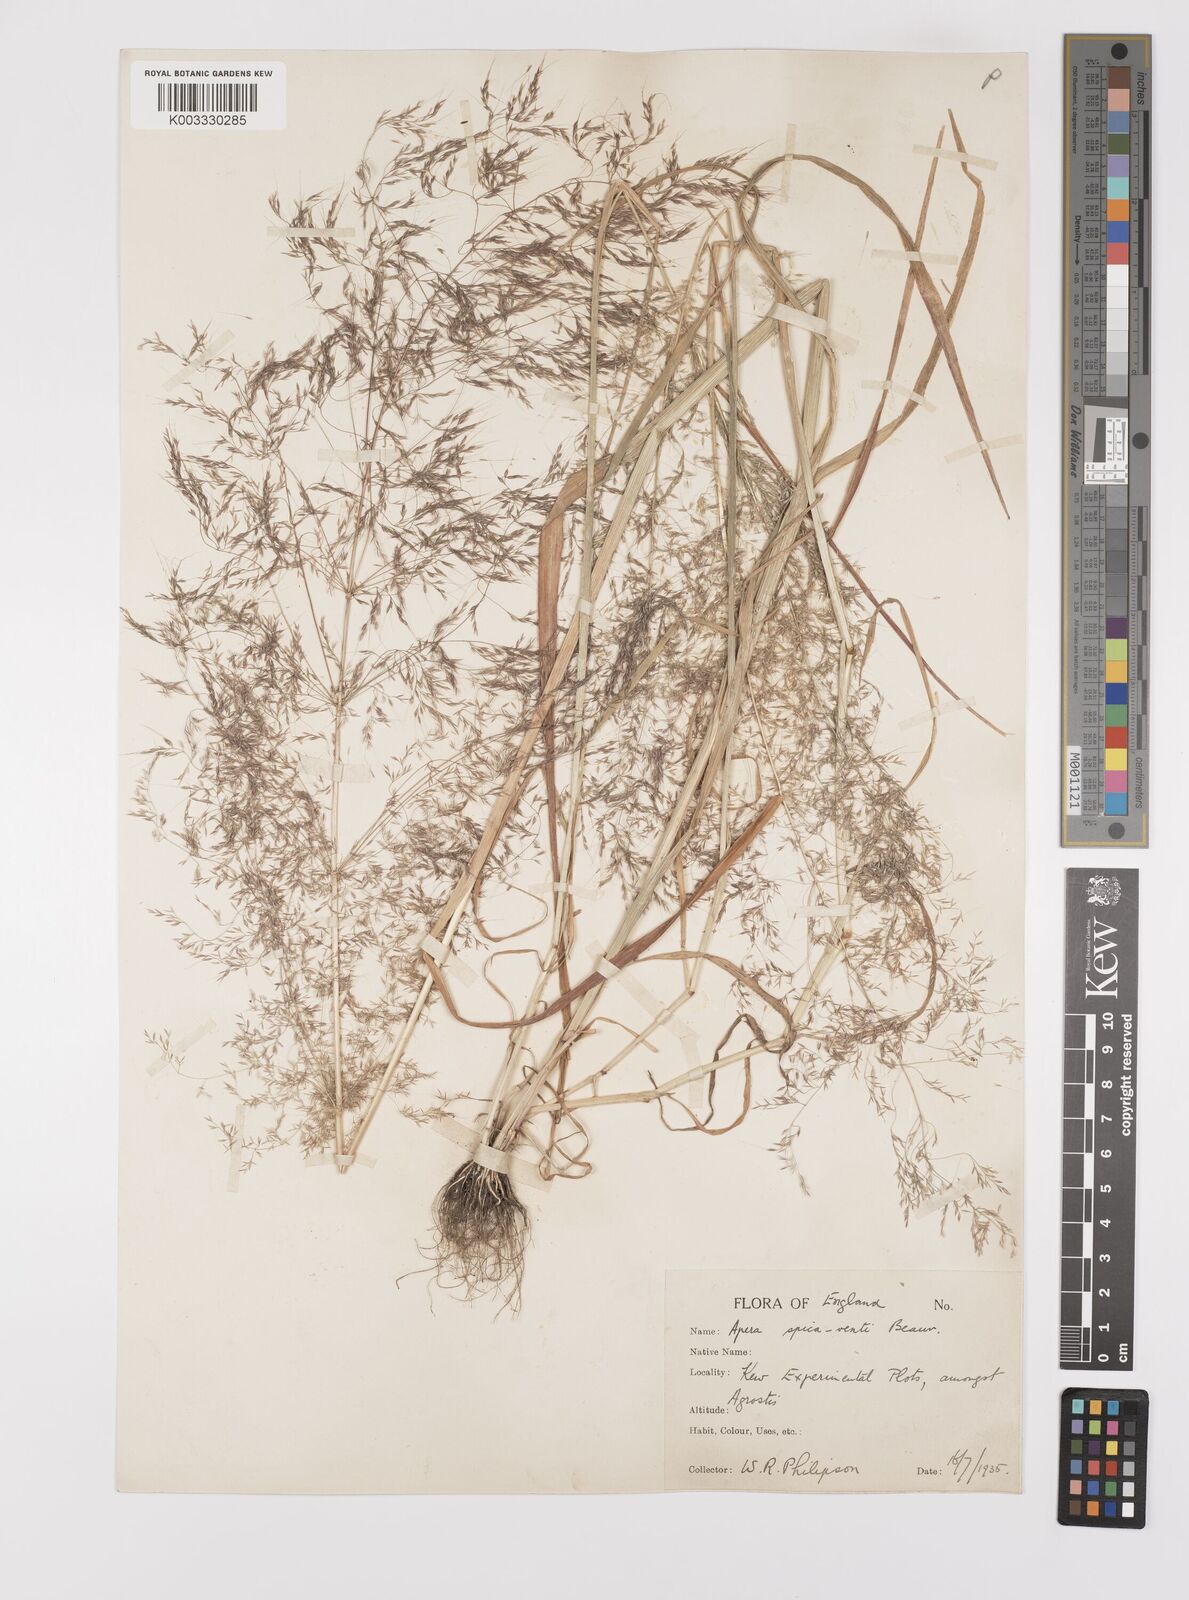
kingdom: Plantae
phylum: Tracheophyta
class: Liliopsida
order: Poales
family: Poaceae
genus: Apera
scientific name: Apera spica-venti
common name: Loose silky-bent
